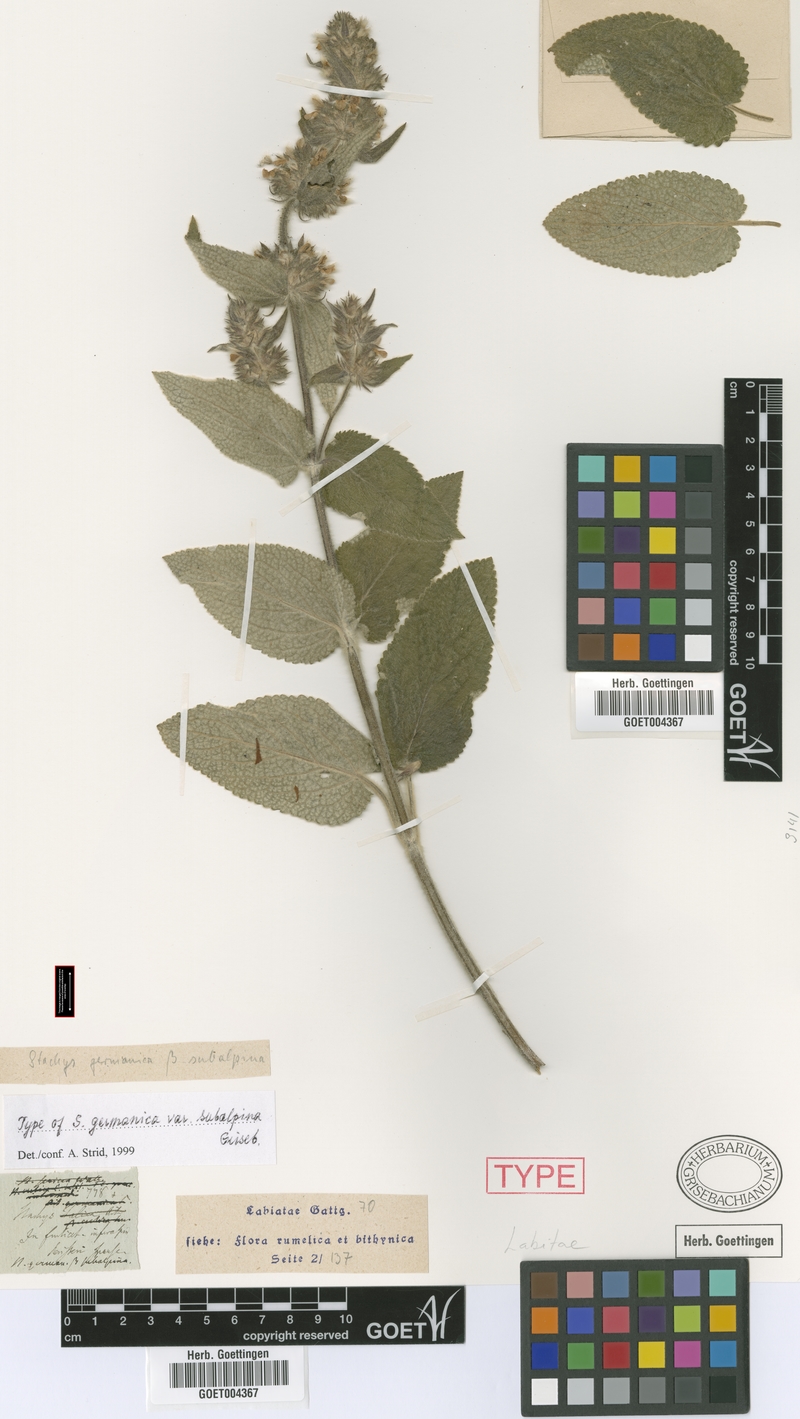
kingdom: Plantae
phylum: Tracheophyta
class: Magnoliopsida
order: Lamiales
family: Lamiaceae
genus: Stachys
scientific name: Stachys germanica
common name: Downy woundwort
